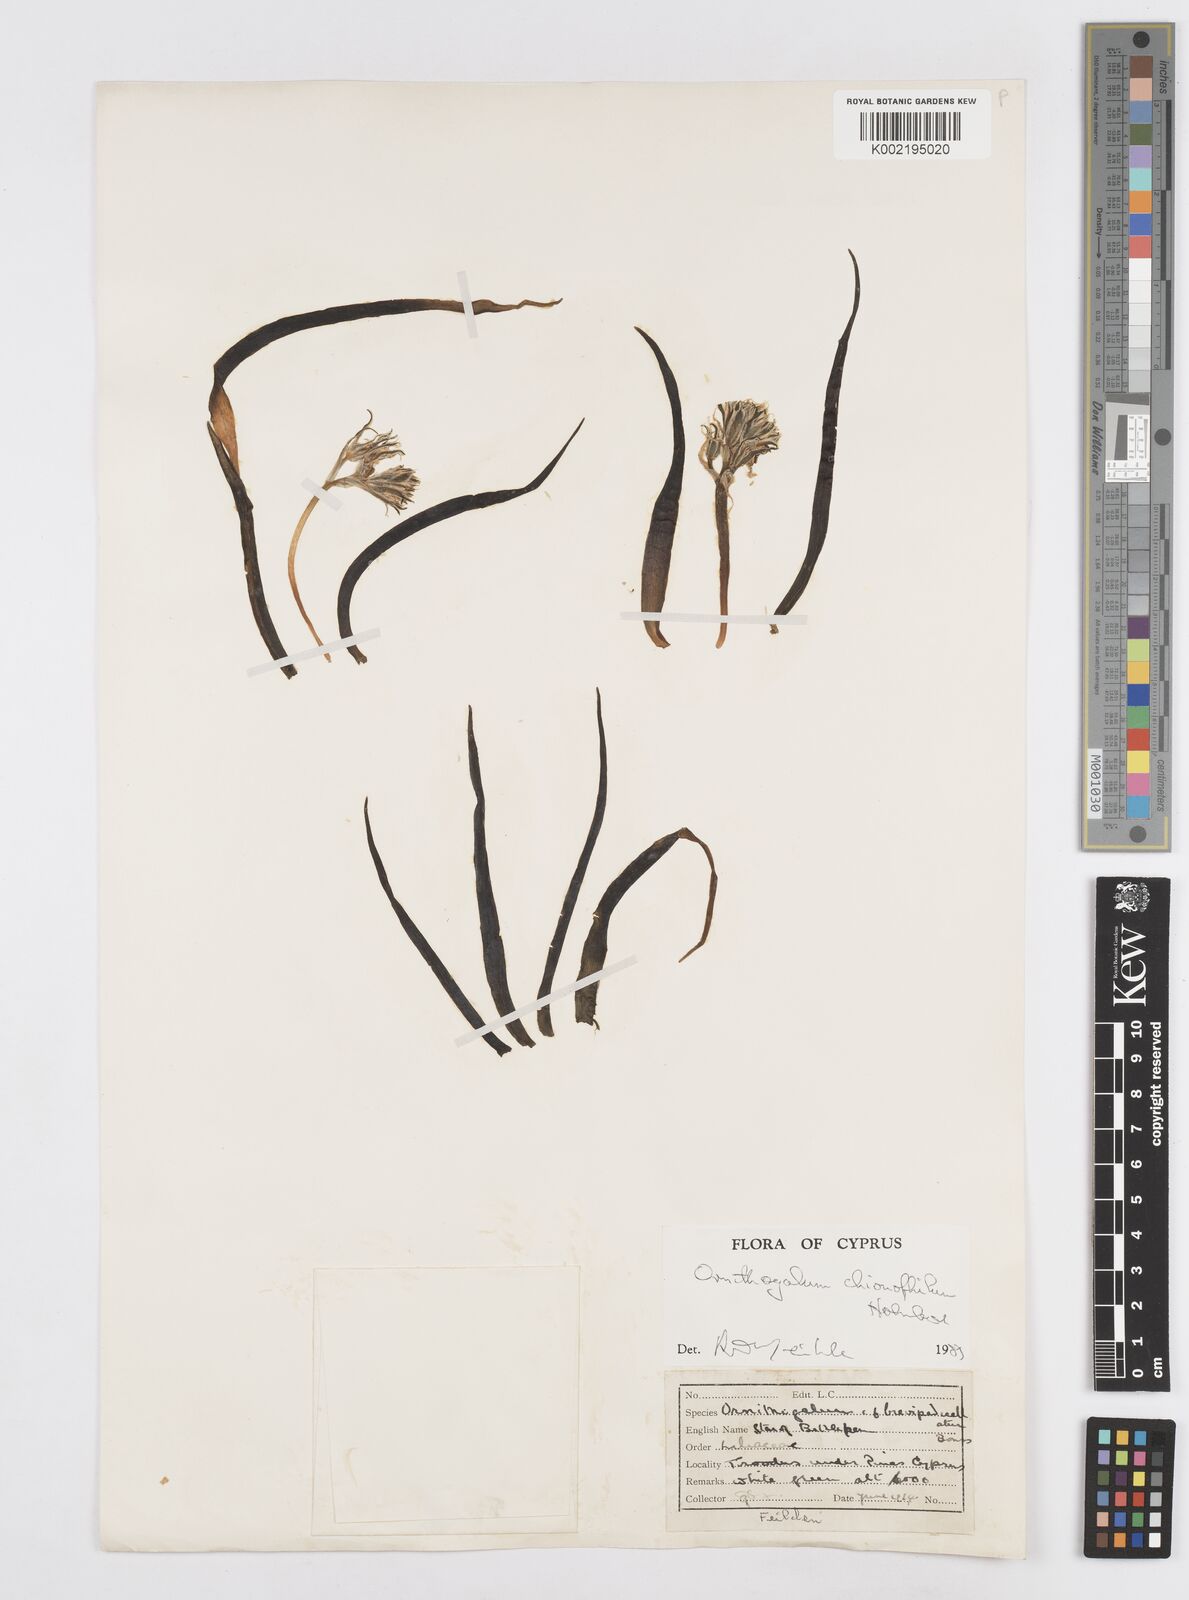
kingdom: Plantae
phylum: Tracheophyta
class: Liliopsida
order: Asparagales
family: Asparagaceae
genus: Ornithogalum
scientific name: Ornithogalum chionophilum
